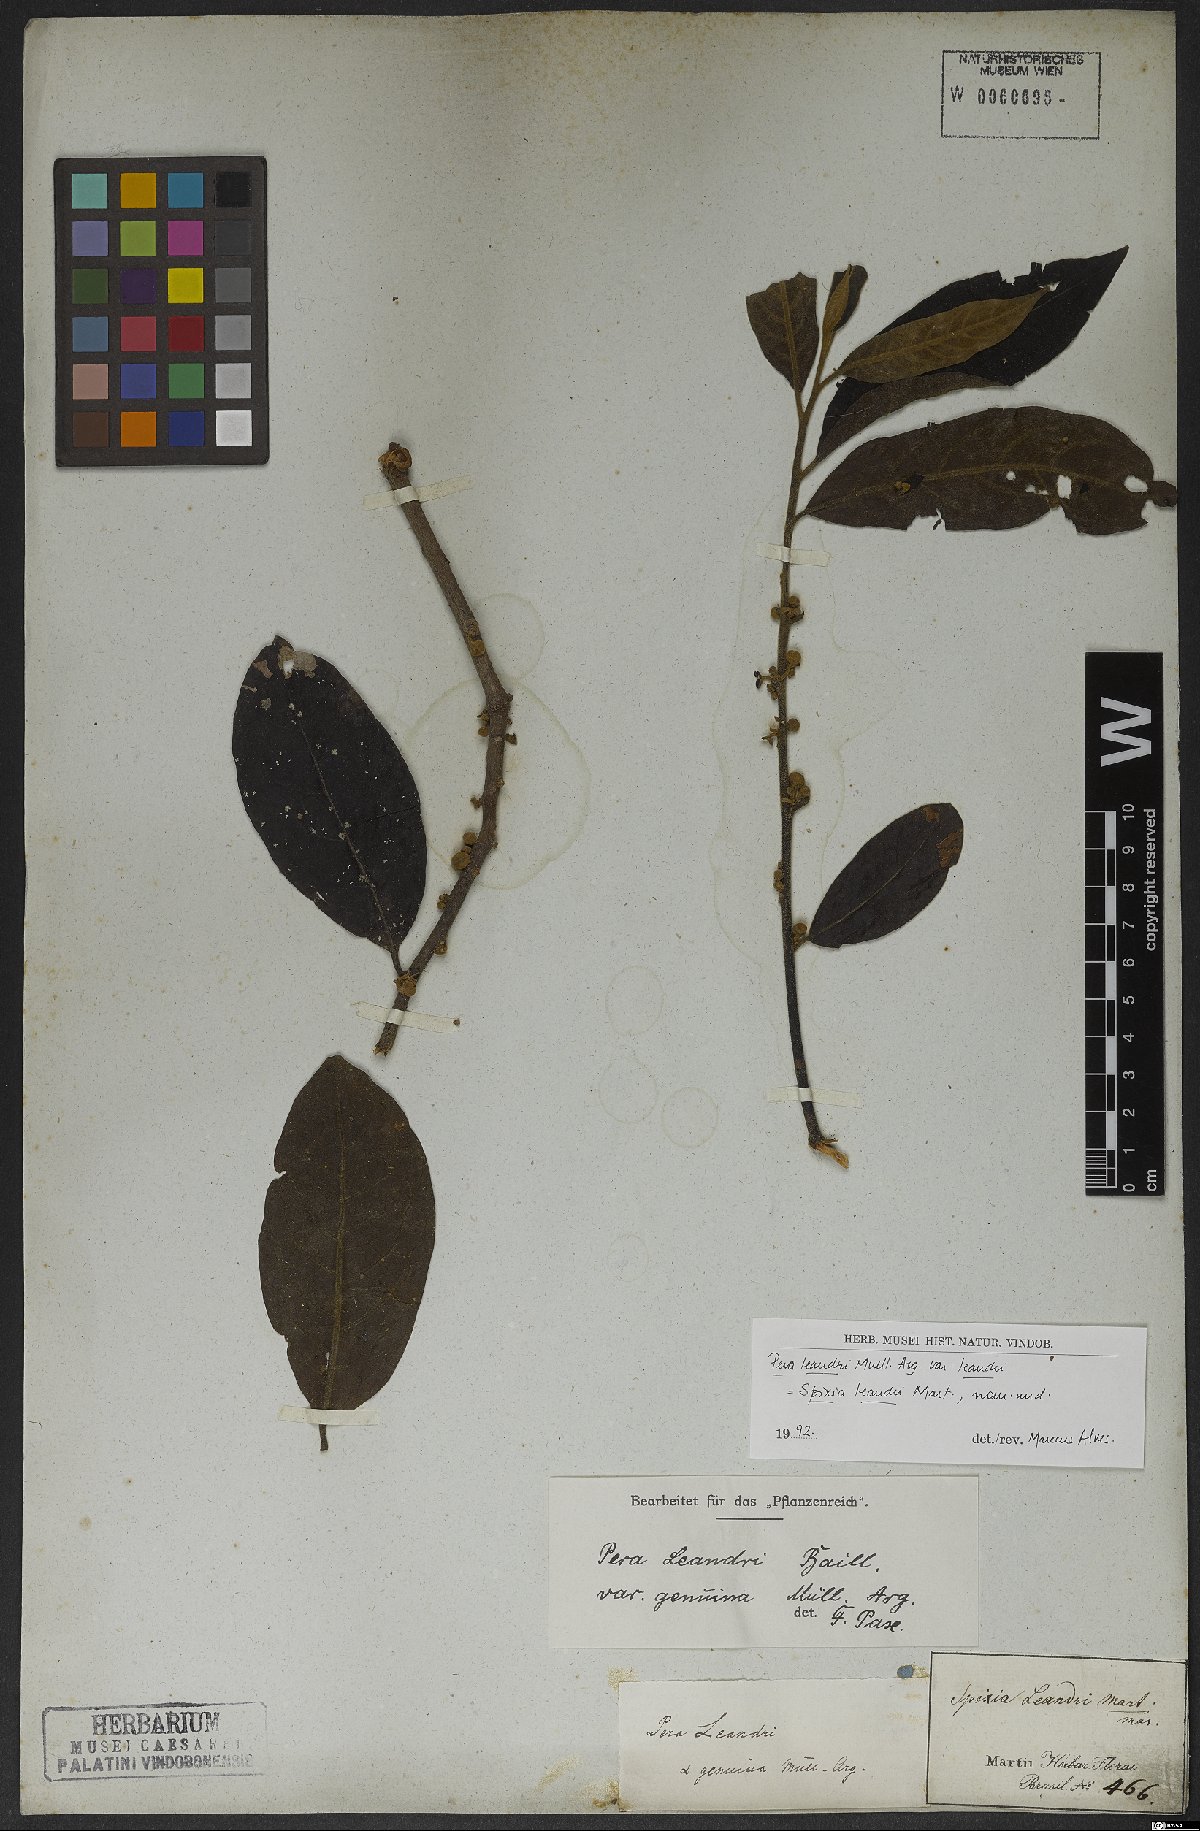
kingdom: Plantae
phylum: Tracheophyta
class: Magnoliopsida
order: Malpighiales
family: Peraceae
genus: Pera
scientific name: Pera heteranthera
